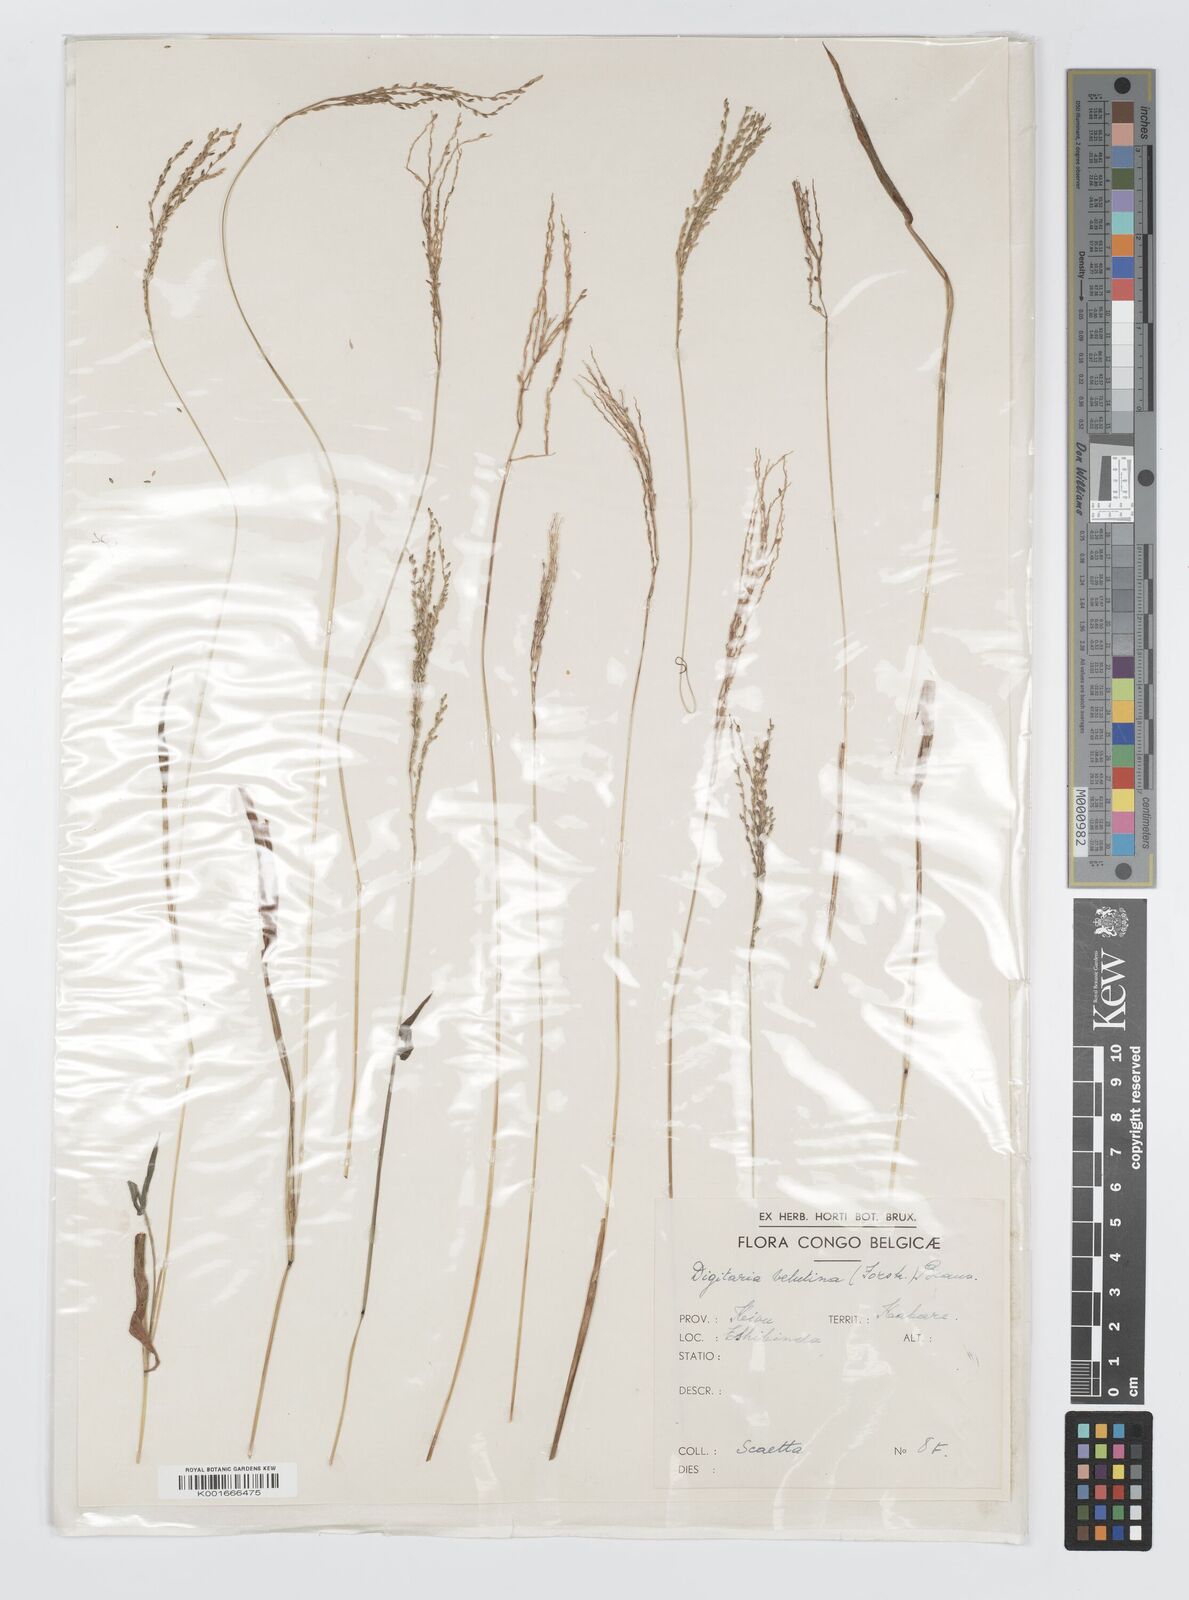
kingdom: Plantae
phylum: Tracheophyta
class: Liliopsida
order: Poales
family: Poaceae
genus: Digitaria
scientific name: Digitaria abyssinica
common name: African couchgrass
